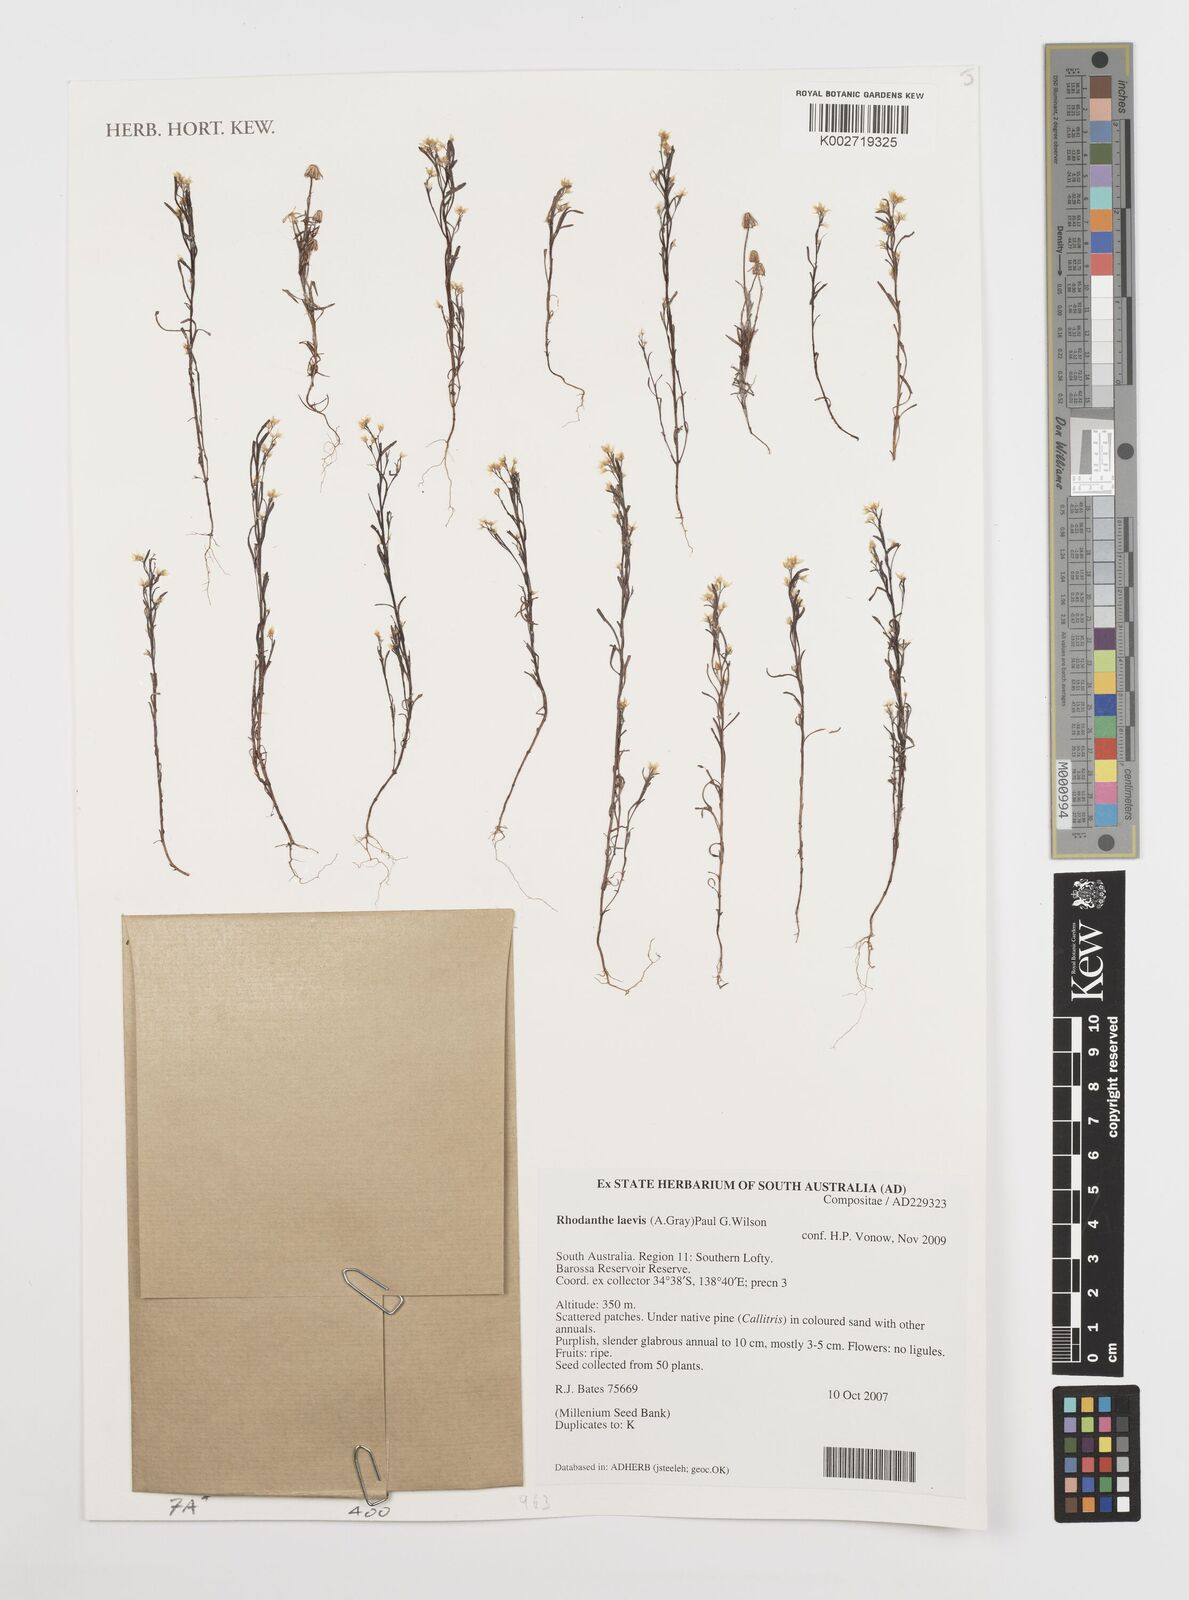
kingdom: Plantae
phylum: Tracheophyta
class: Magnoliopsida
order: Asterales
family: Asteraceae
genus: Rhodanthe
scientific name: Rhodanthe laevis
